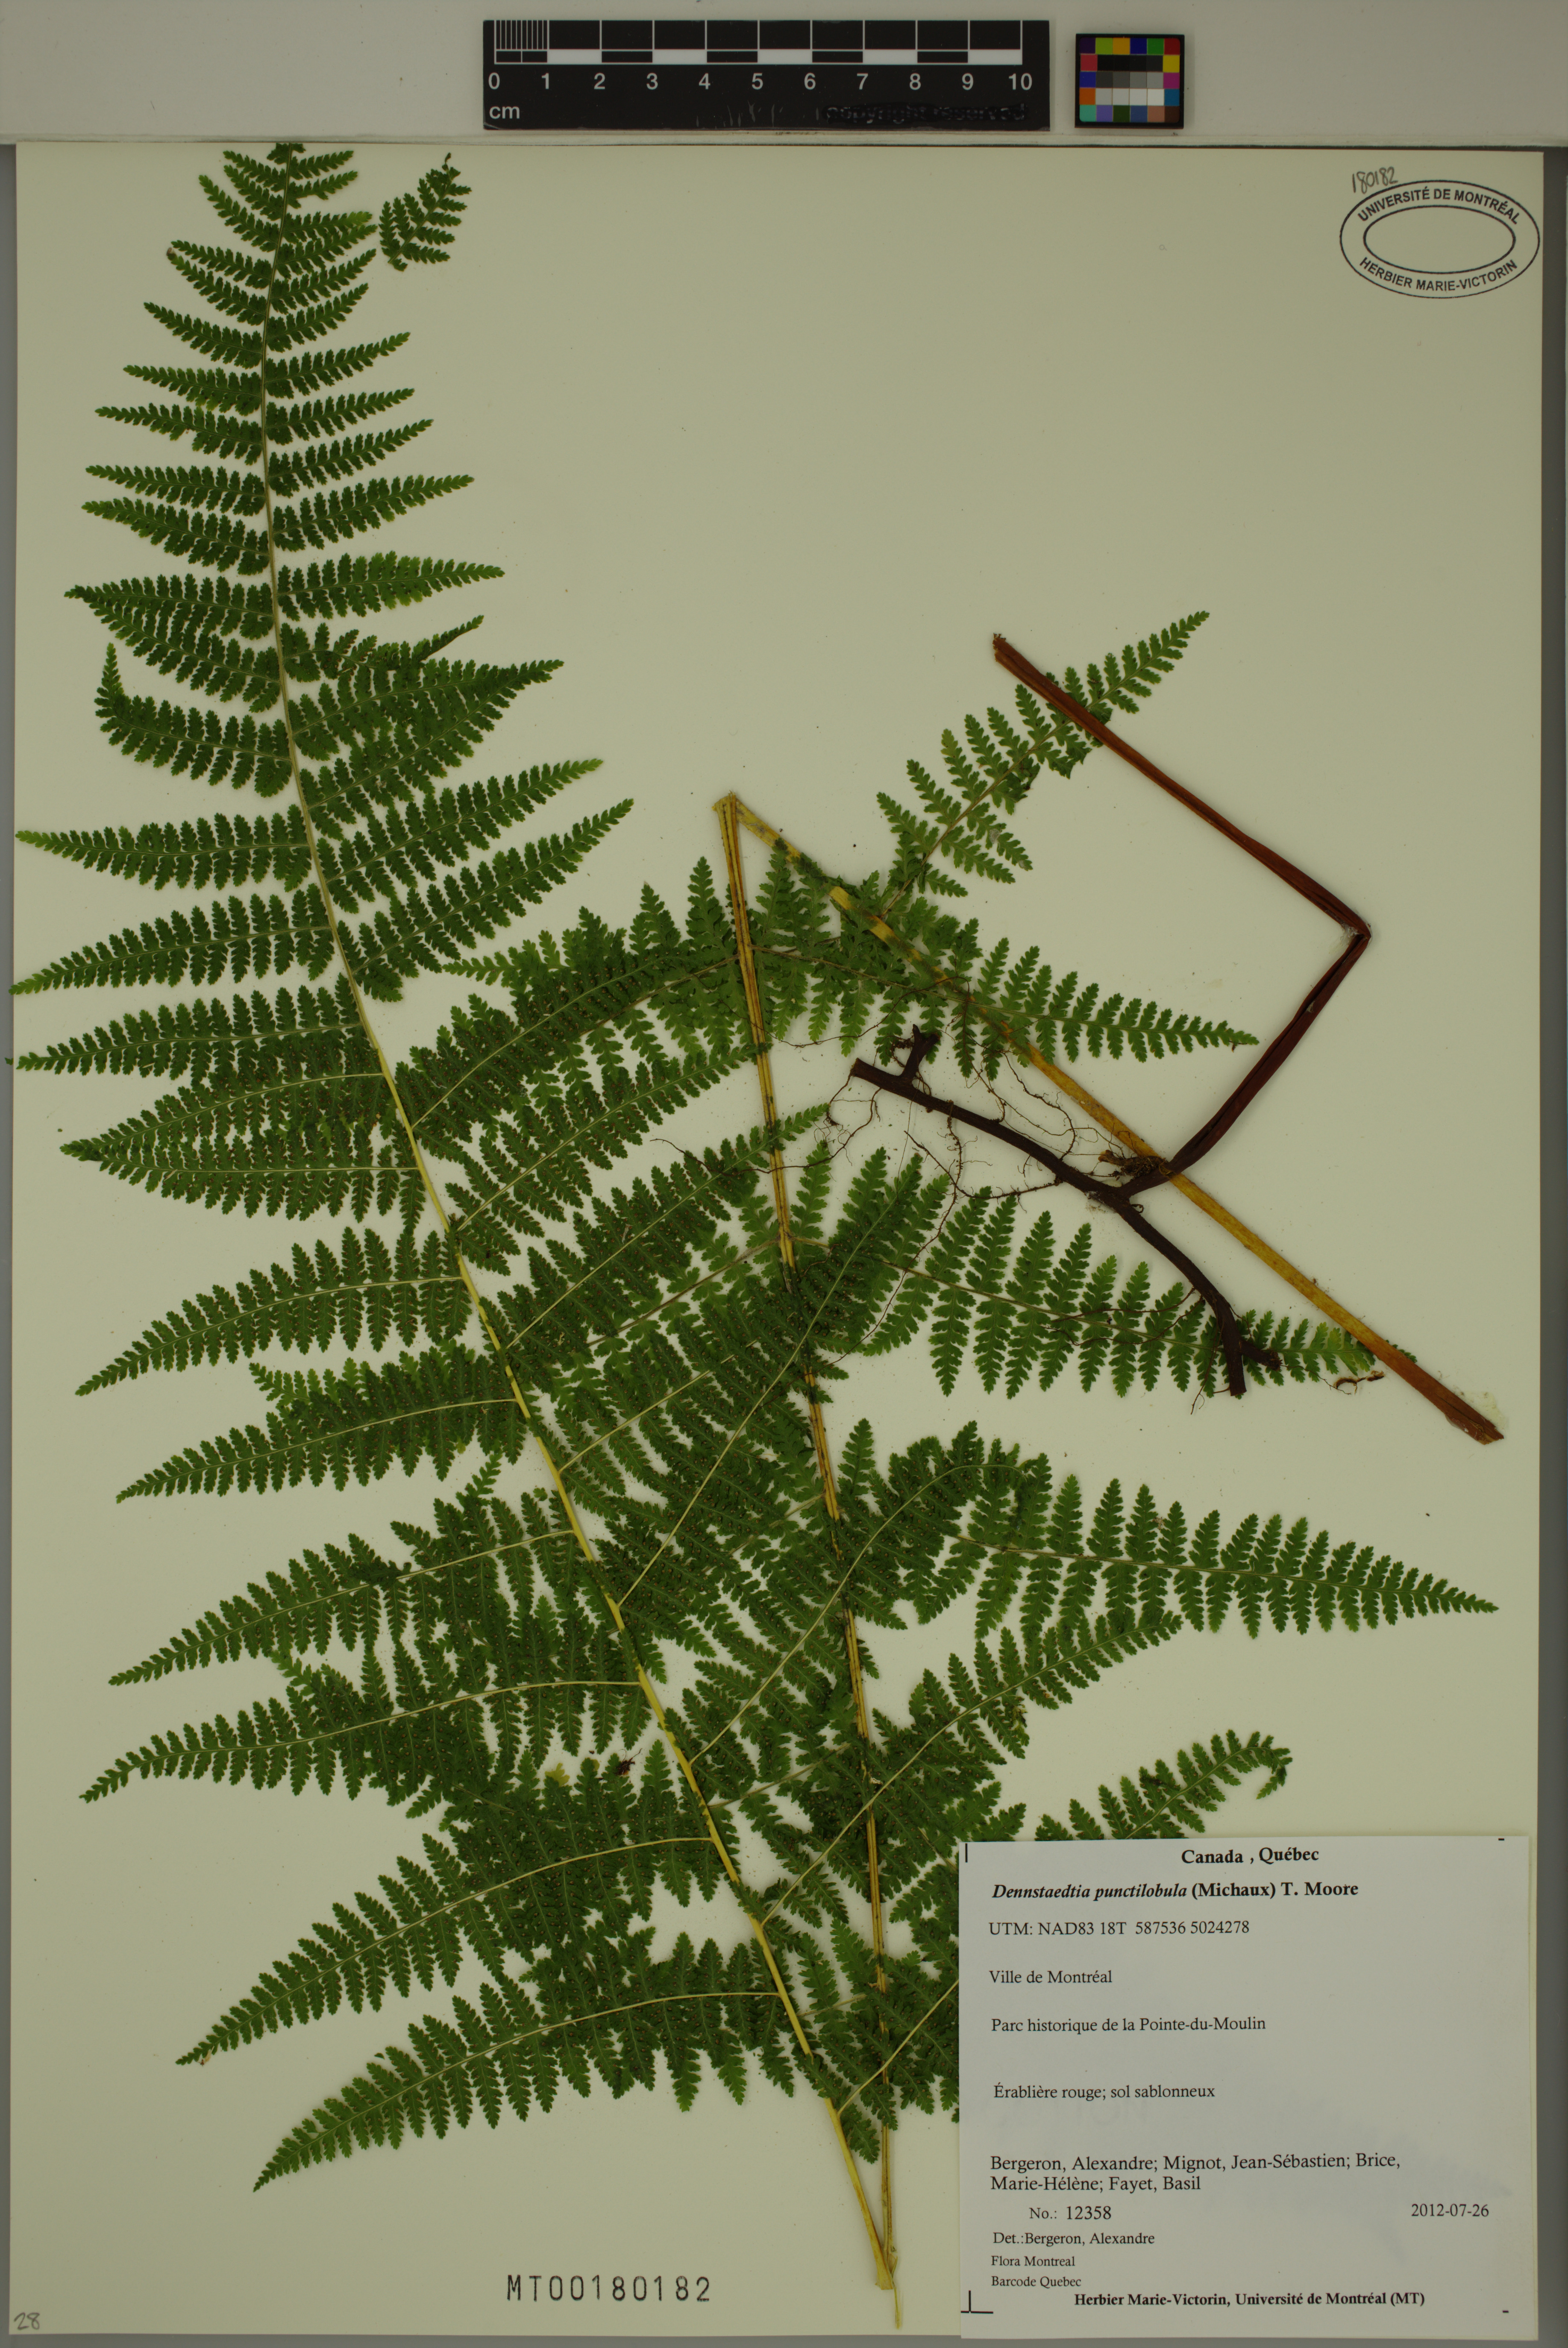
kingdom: Plantae
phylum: Tracheophyta
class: Polypodiopsida
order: Polypodiales
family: Dennstaedtiaceae
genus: Sitobolium
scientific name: Sitobolium punctilobum
